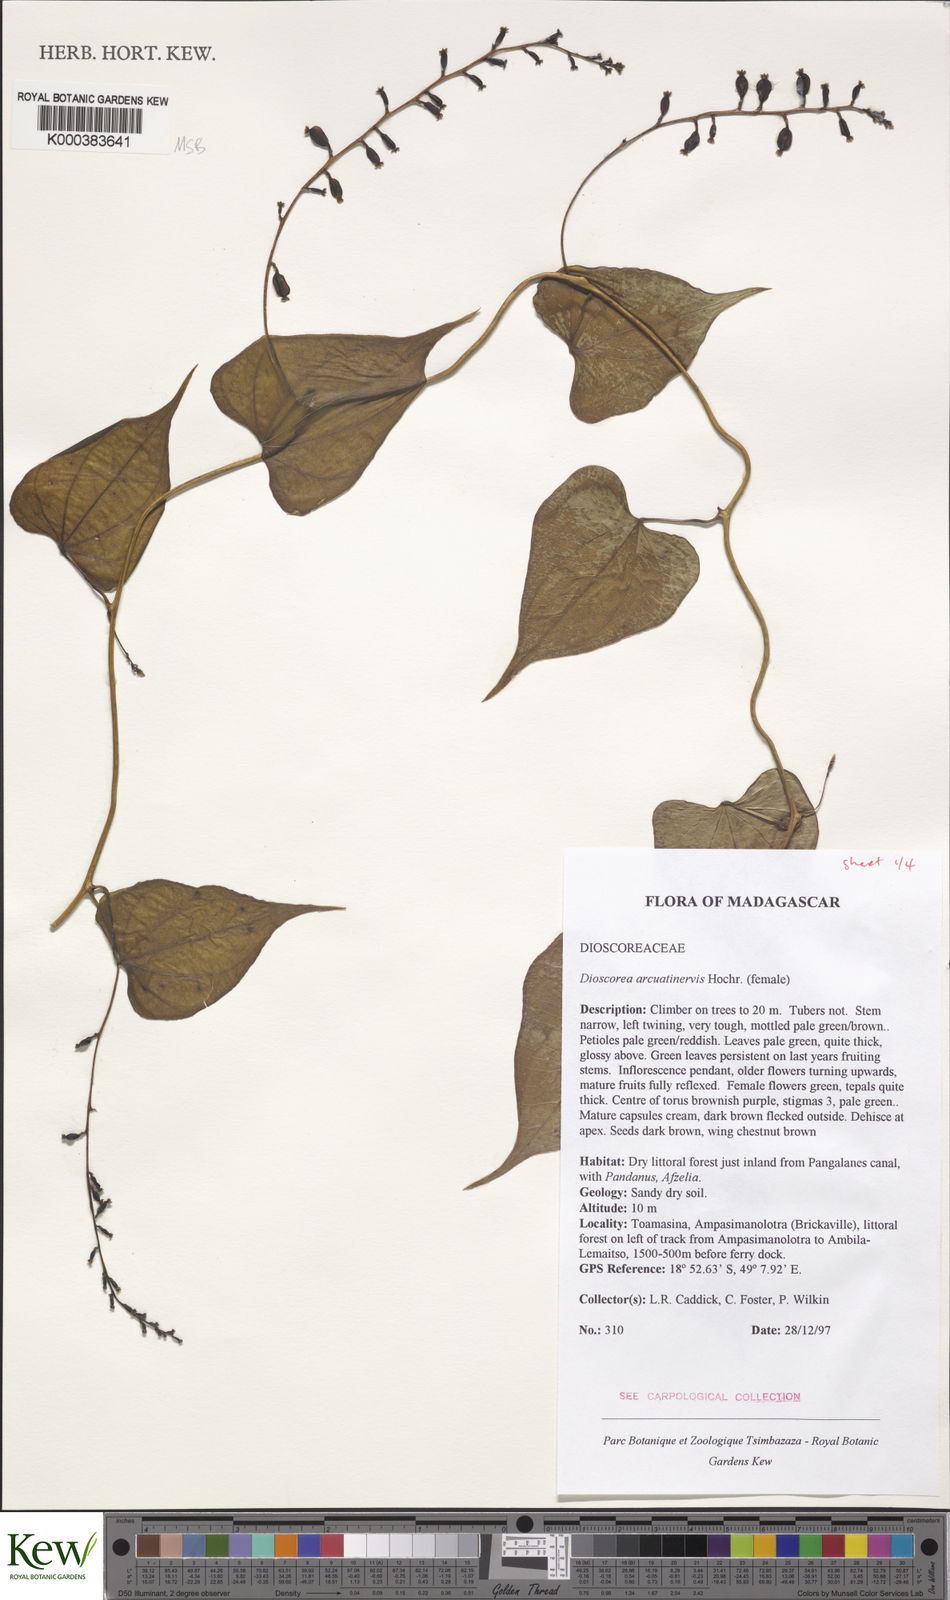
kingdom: Plantae
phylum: Tracheophyta
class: Liliopsida
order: Dioscoreales
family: Dioscoreaceae
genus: Dioscorea
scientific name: Dioscorea arcuatinervis
